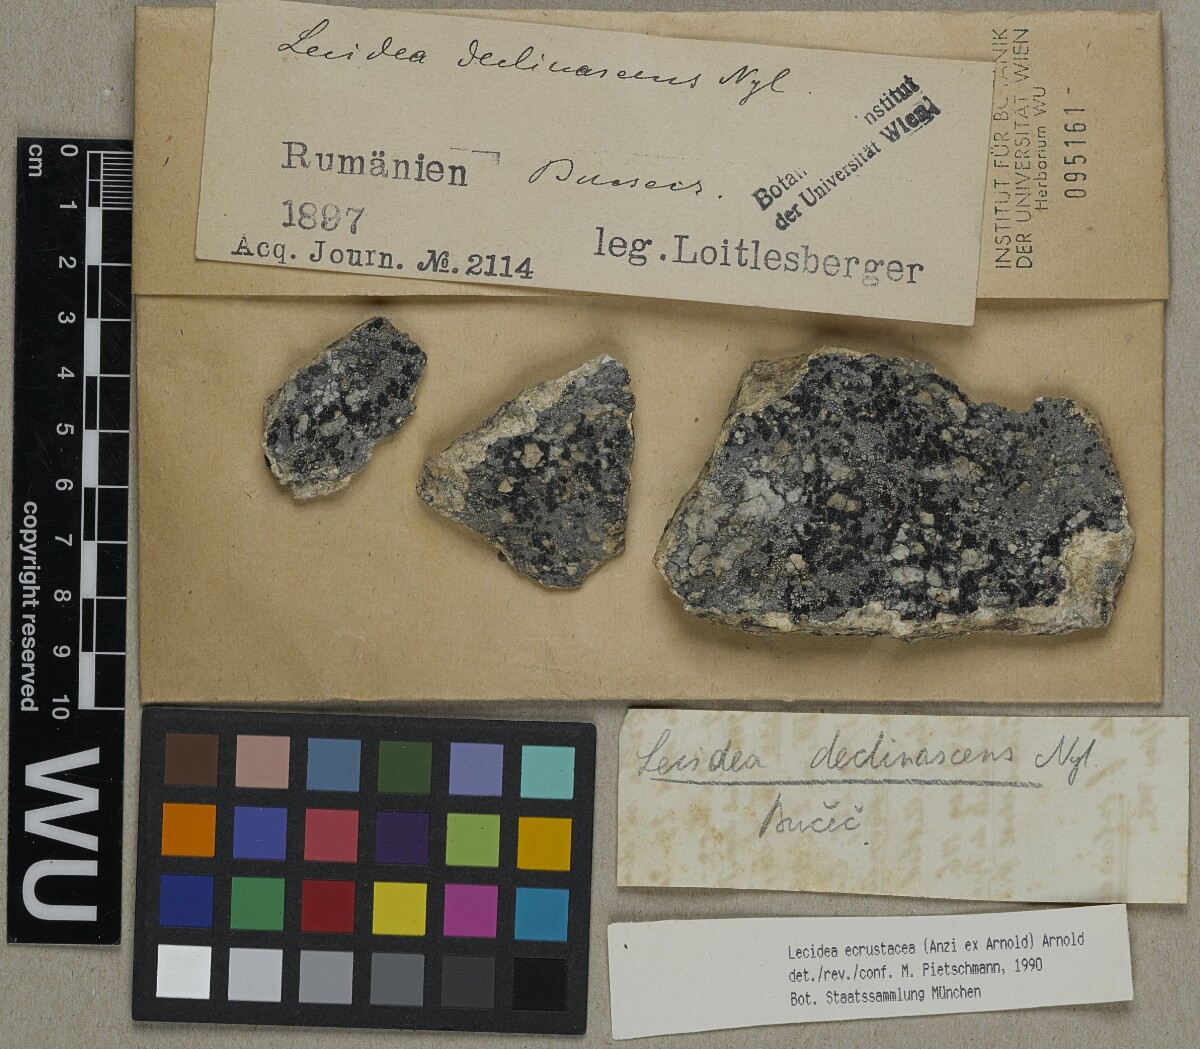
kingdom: Fungi
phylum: Ascomycota
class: Lecanoromycetes
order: Lecideales
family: Lecideaceae
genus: Lecidea
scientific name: Lecidea ecrustacea
